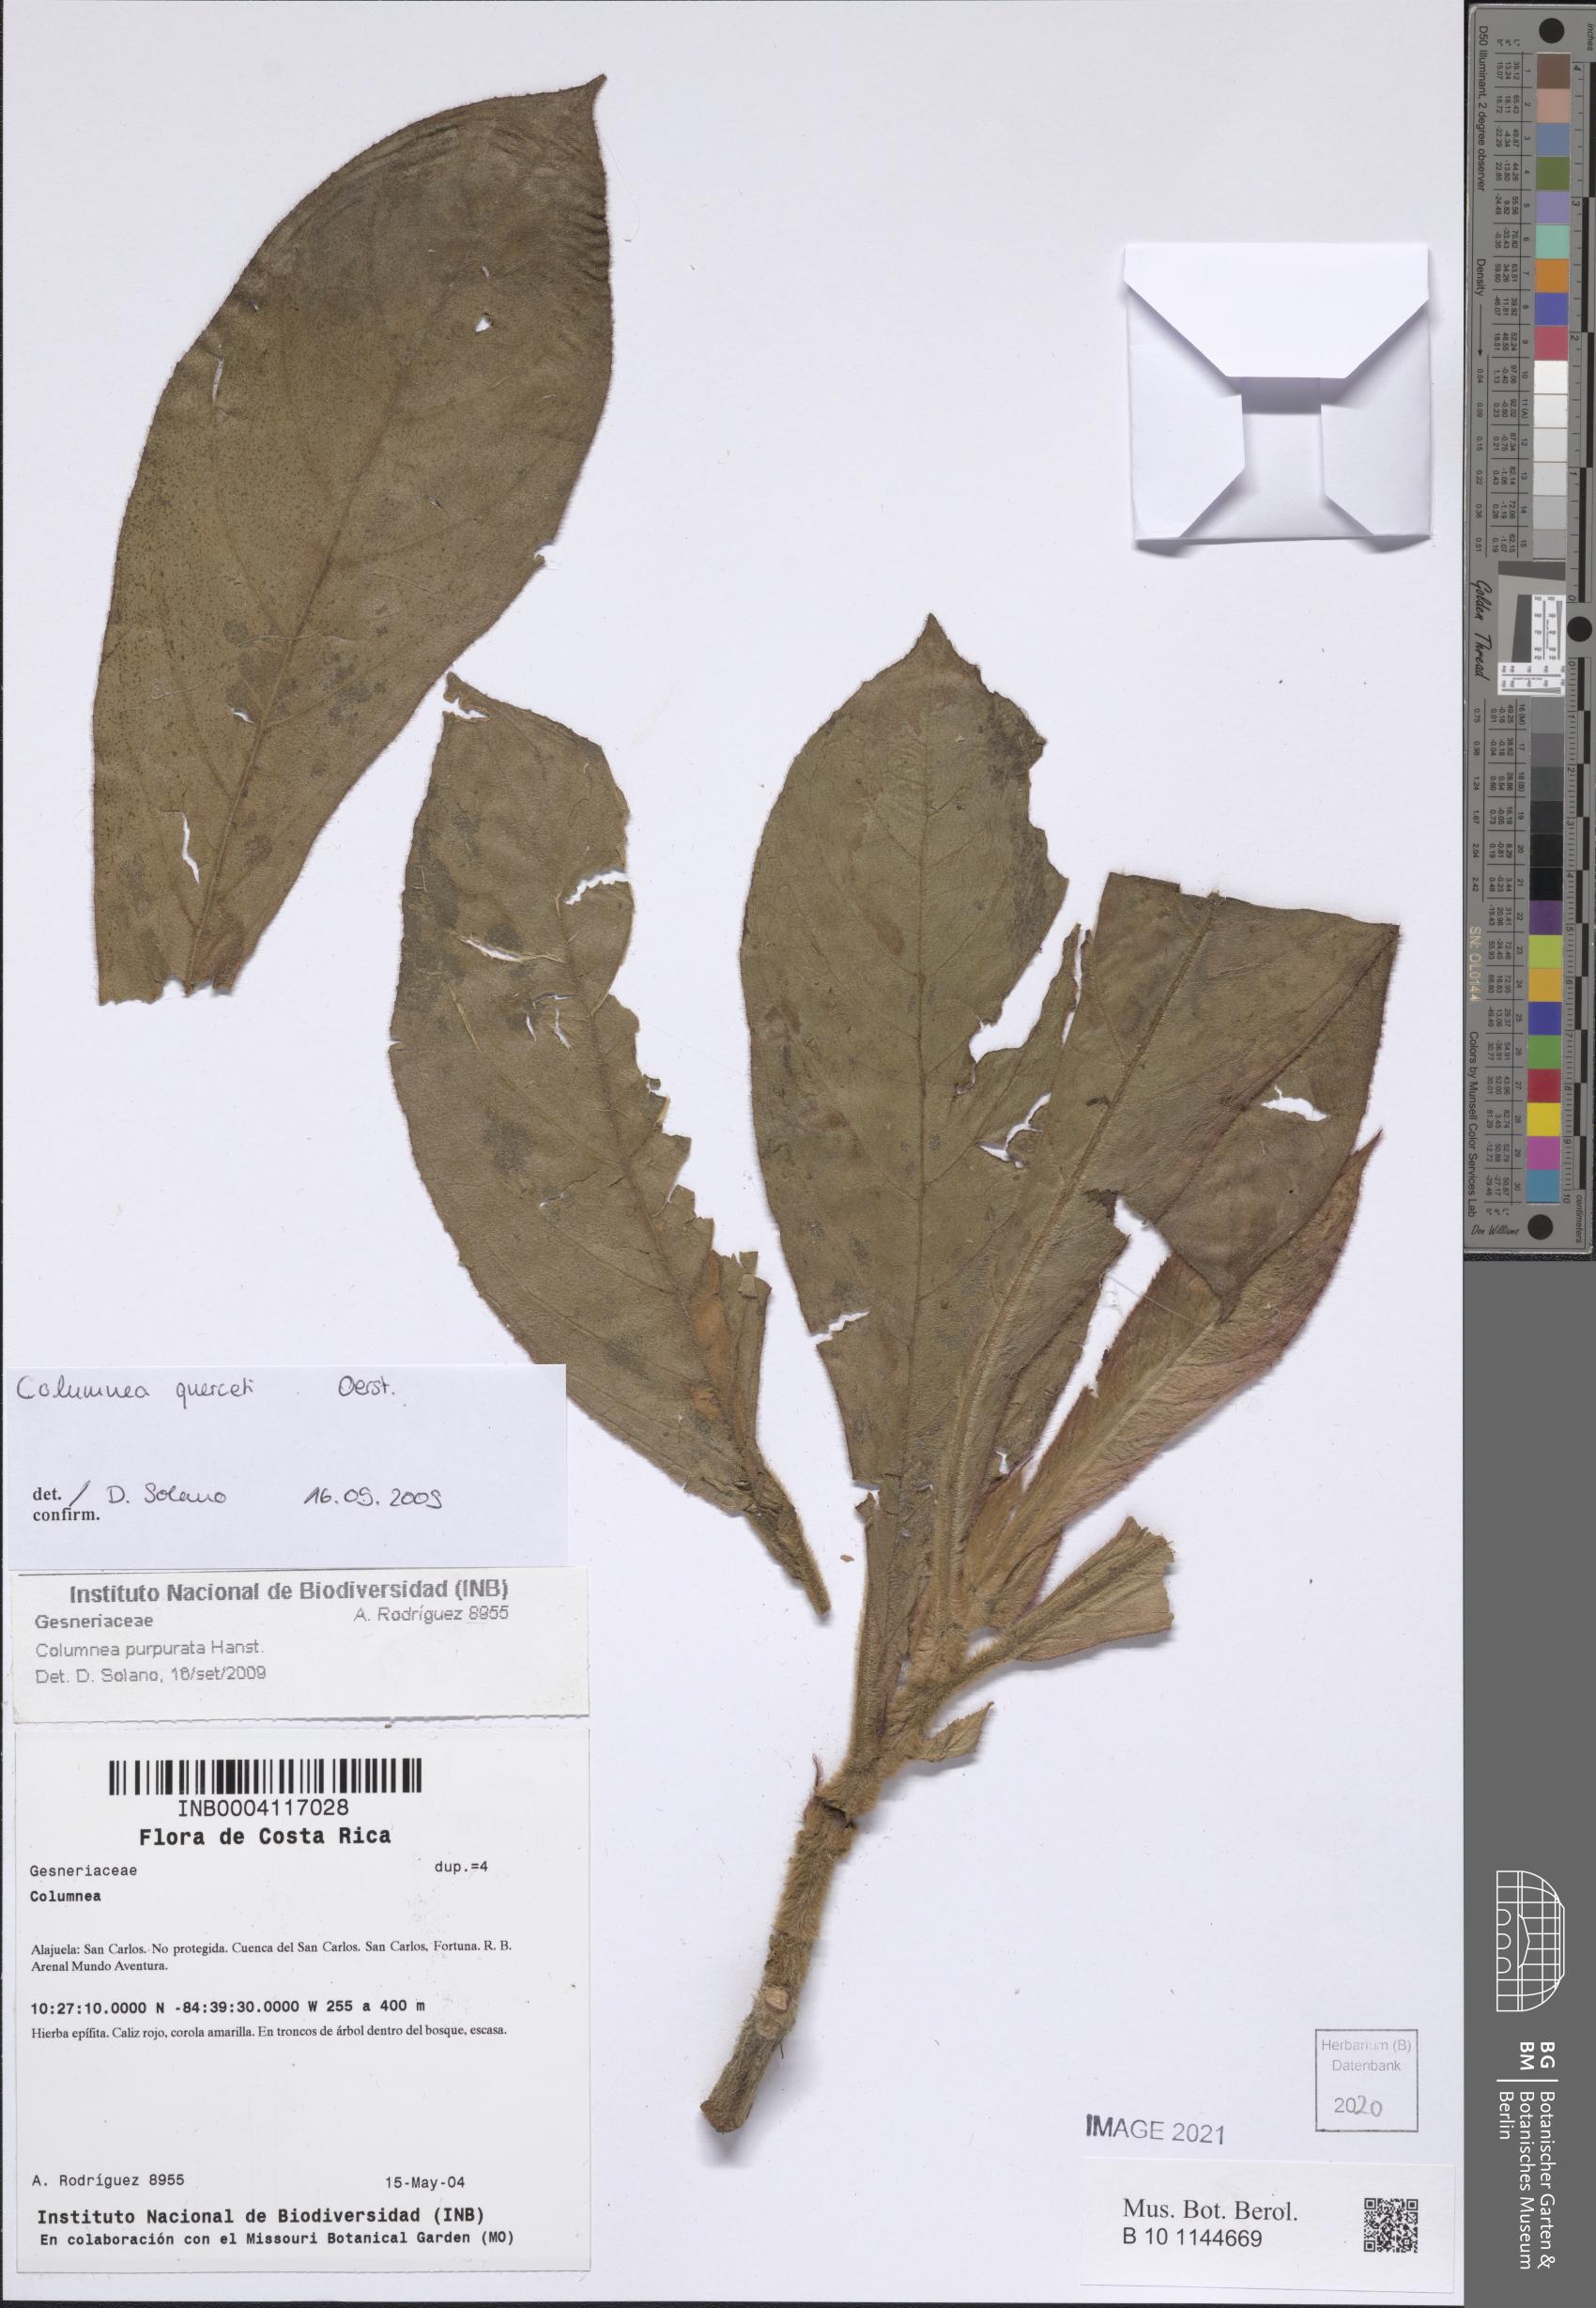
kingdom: Plantae
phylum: Tracheophyta
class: Magnoliopsida
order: Lamiales
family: Gesneriaceae
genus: Columnea
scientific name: Columnea querceti
